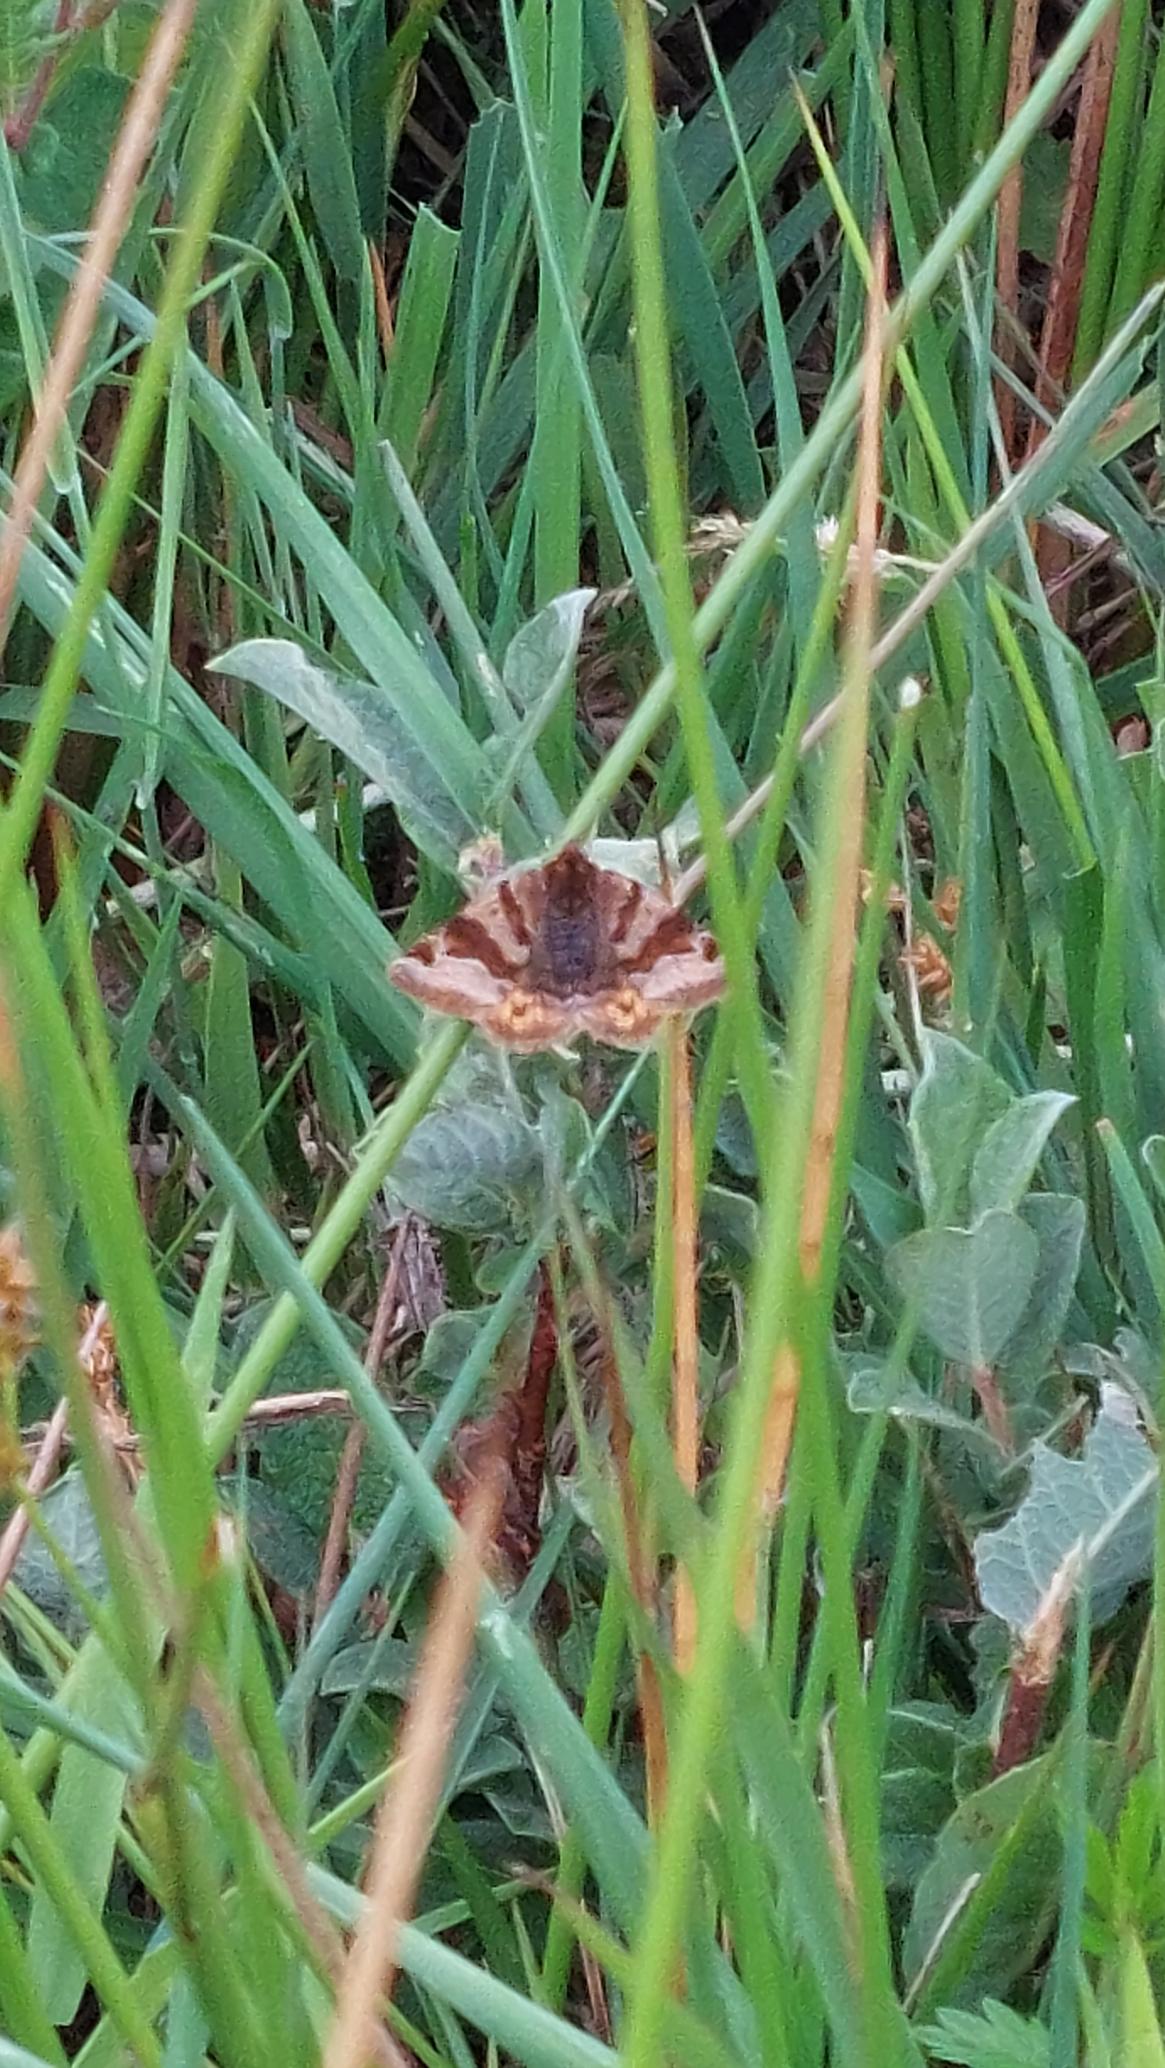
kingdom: Animalia
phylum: Arthropoda
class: Insecta
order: Lepidoptera
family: Erebidae
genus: Euclidia
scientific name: Euclidia glyphica
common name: Brun kløverugle
